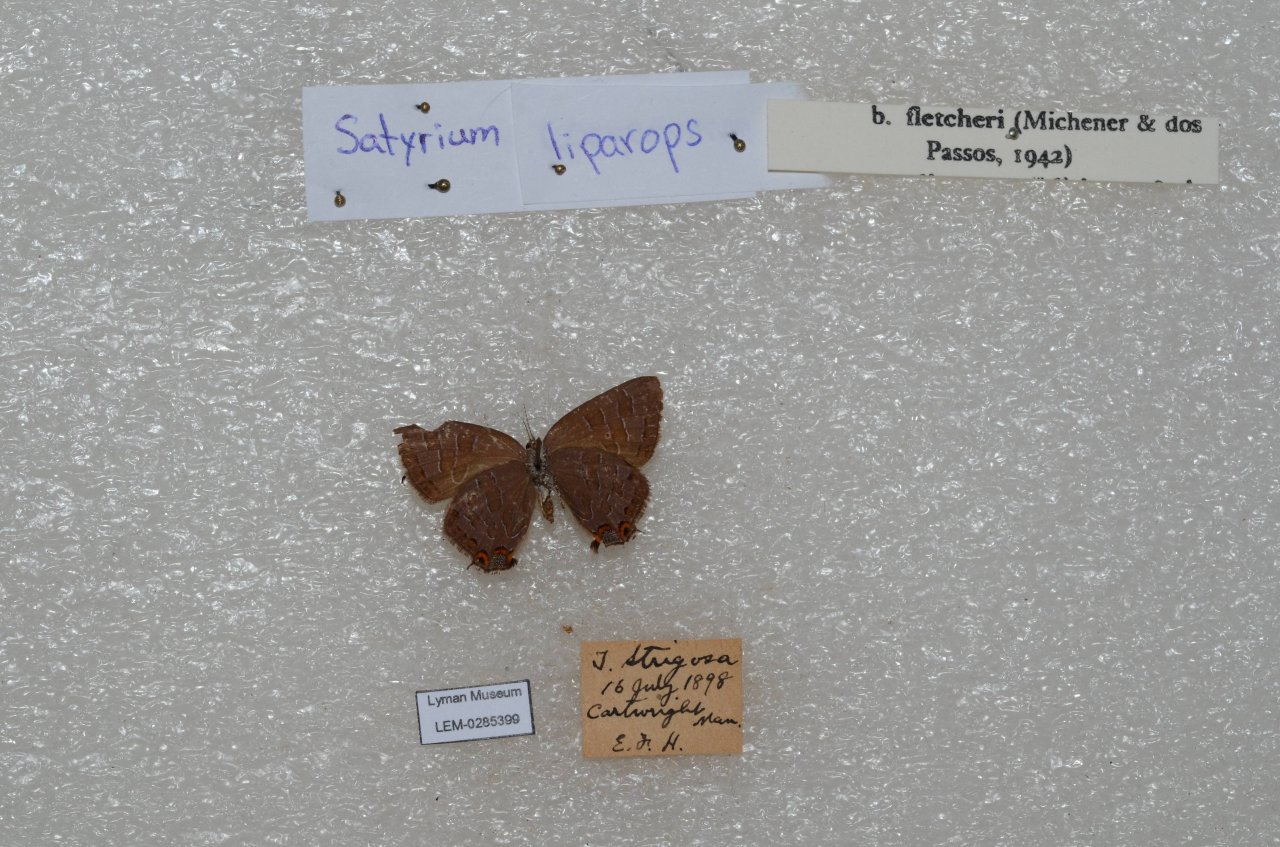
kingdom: Animalia
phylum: Arthropoda
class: Insecta
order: Lepidoptera
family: Lycaenidae
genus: Satyrium
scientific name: Satyrium liparops
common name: Striped Hairstreak
